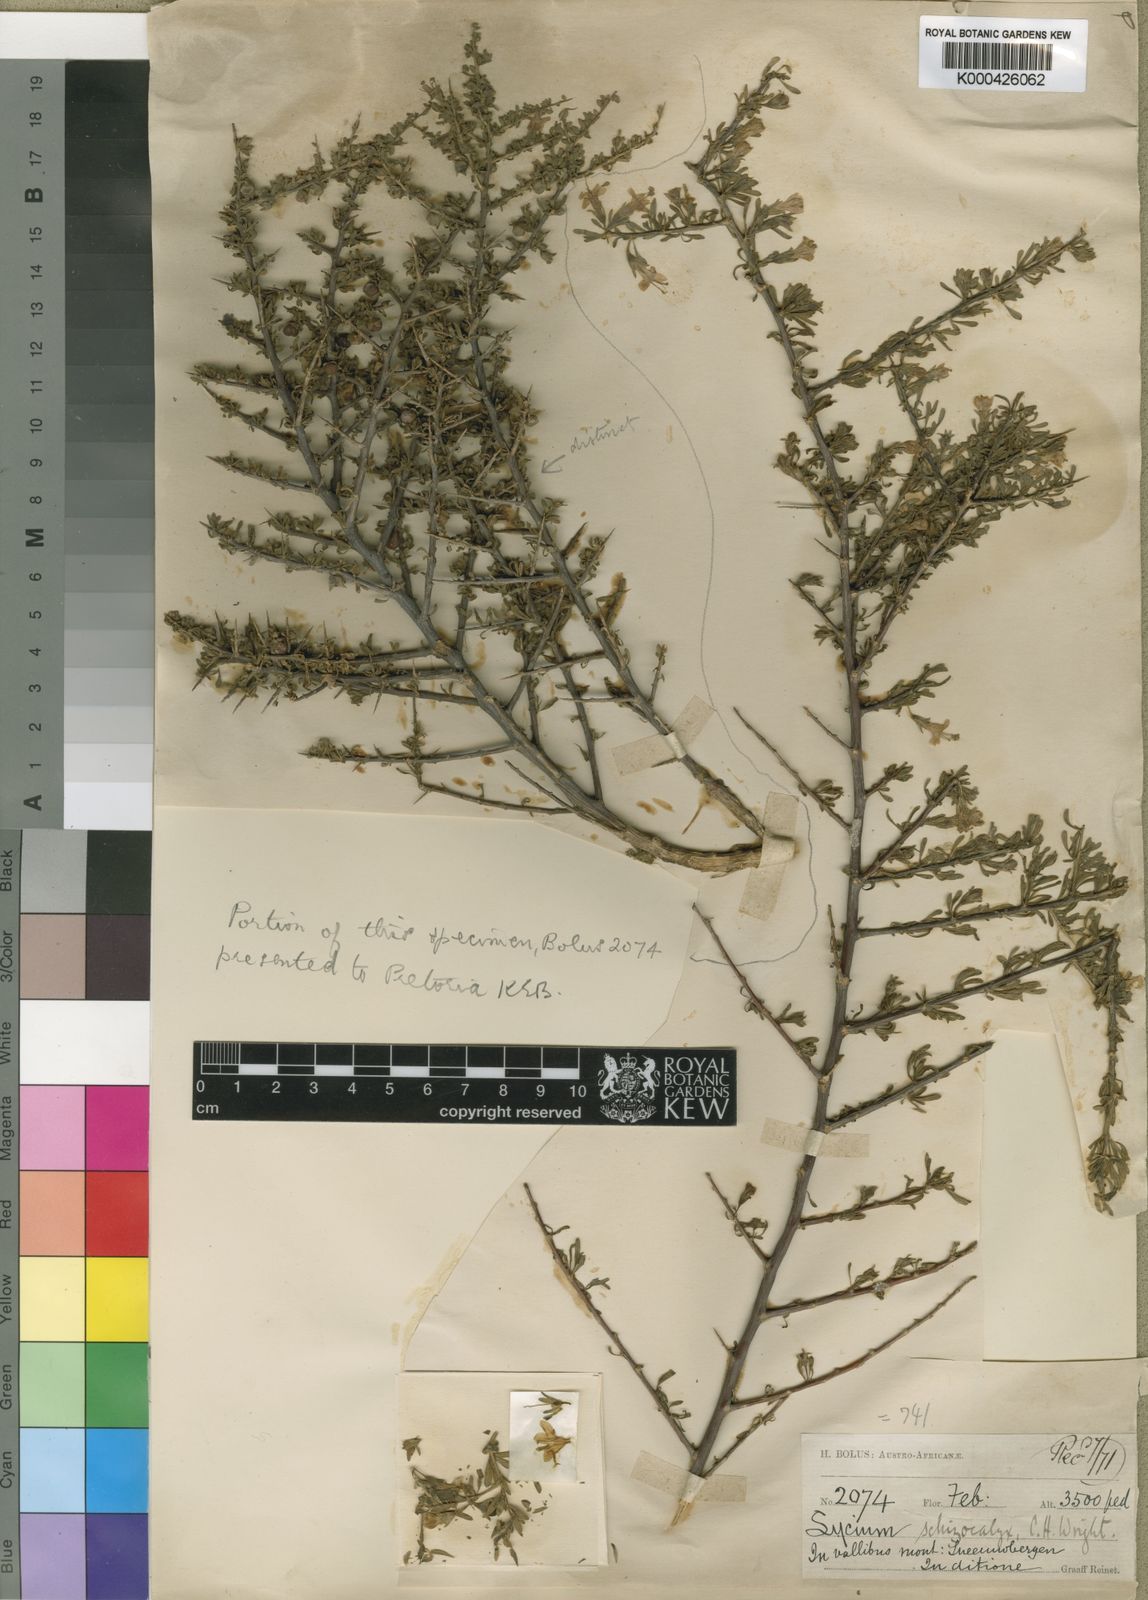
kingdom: Plantae
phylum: Tracheophyta
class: Magnoliopsida
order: Solanales
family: Solanaceae
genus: Lycium
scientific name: Lycium schizocalyx
